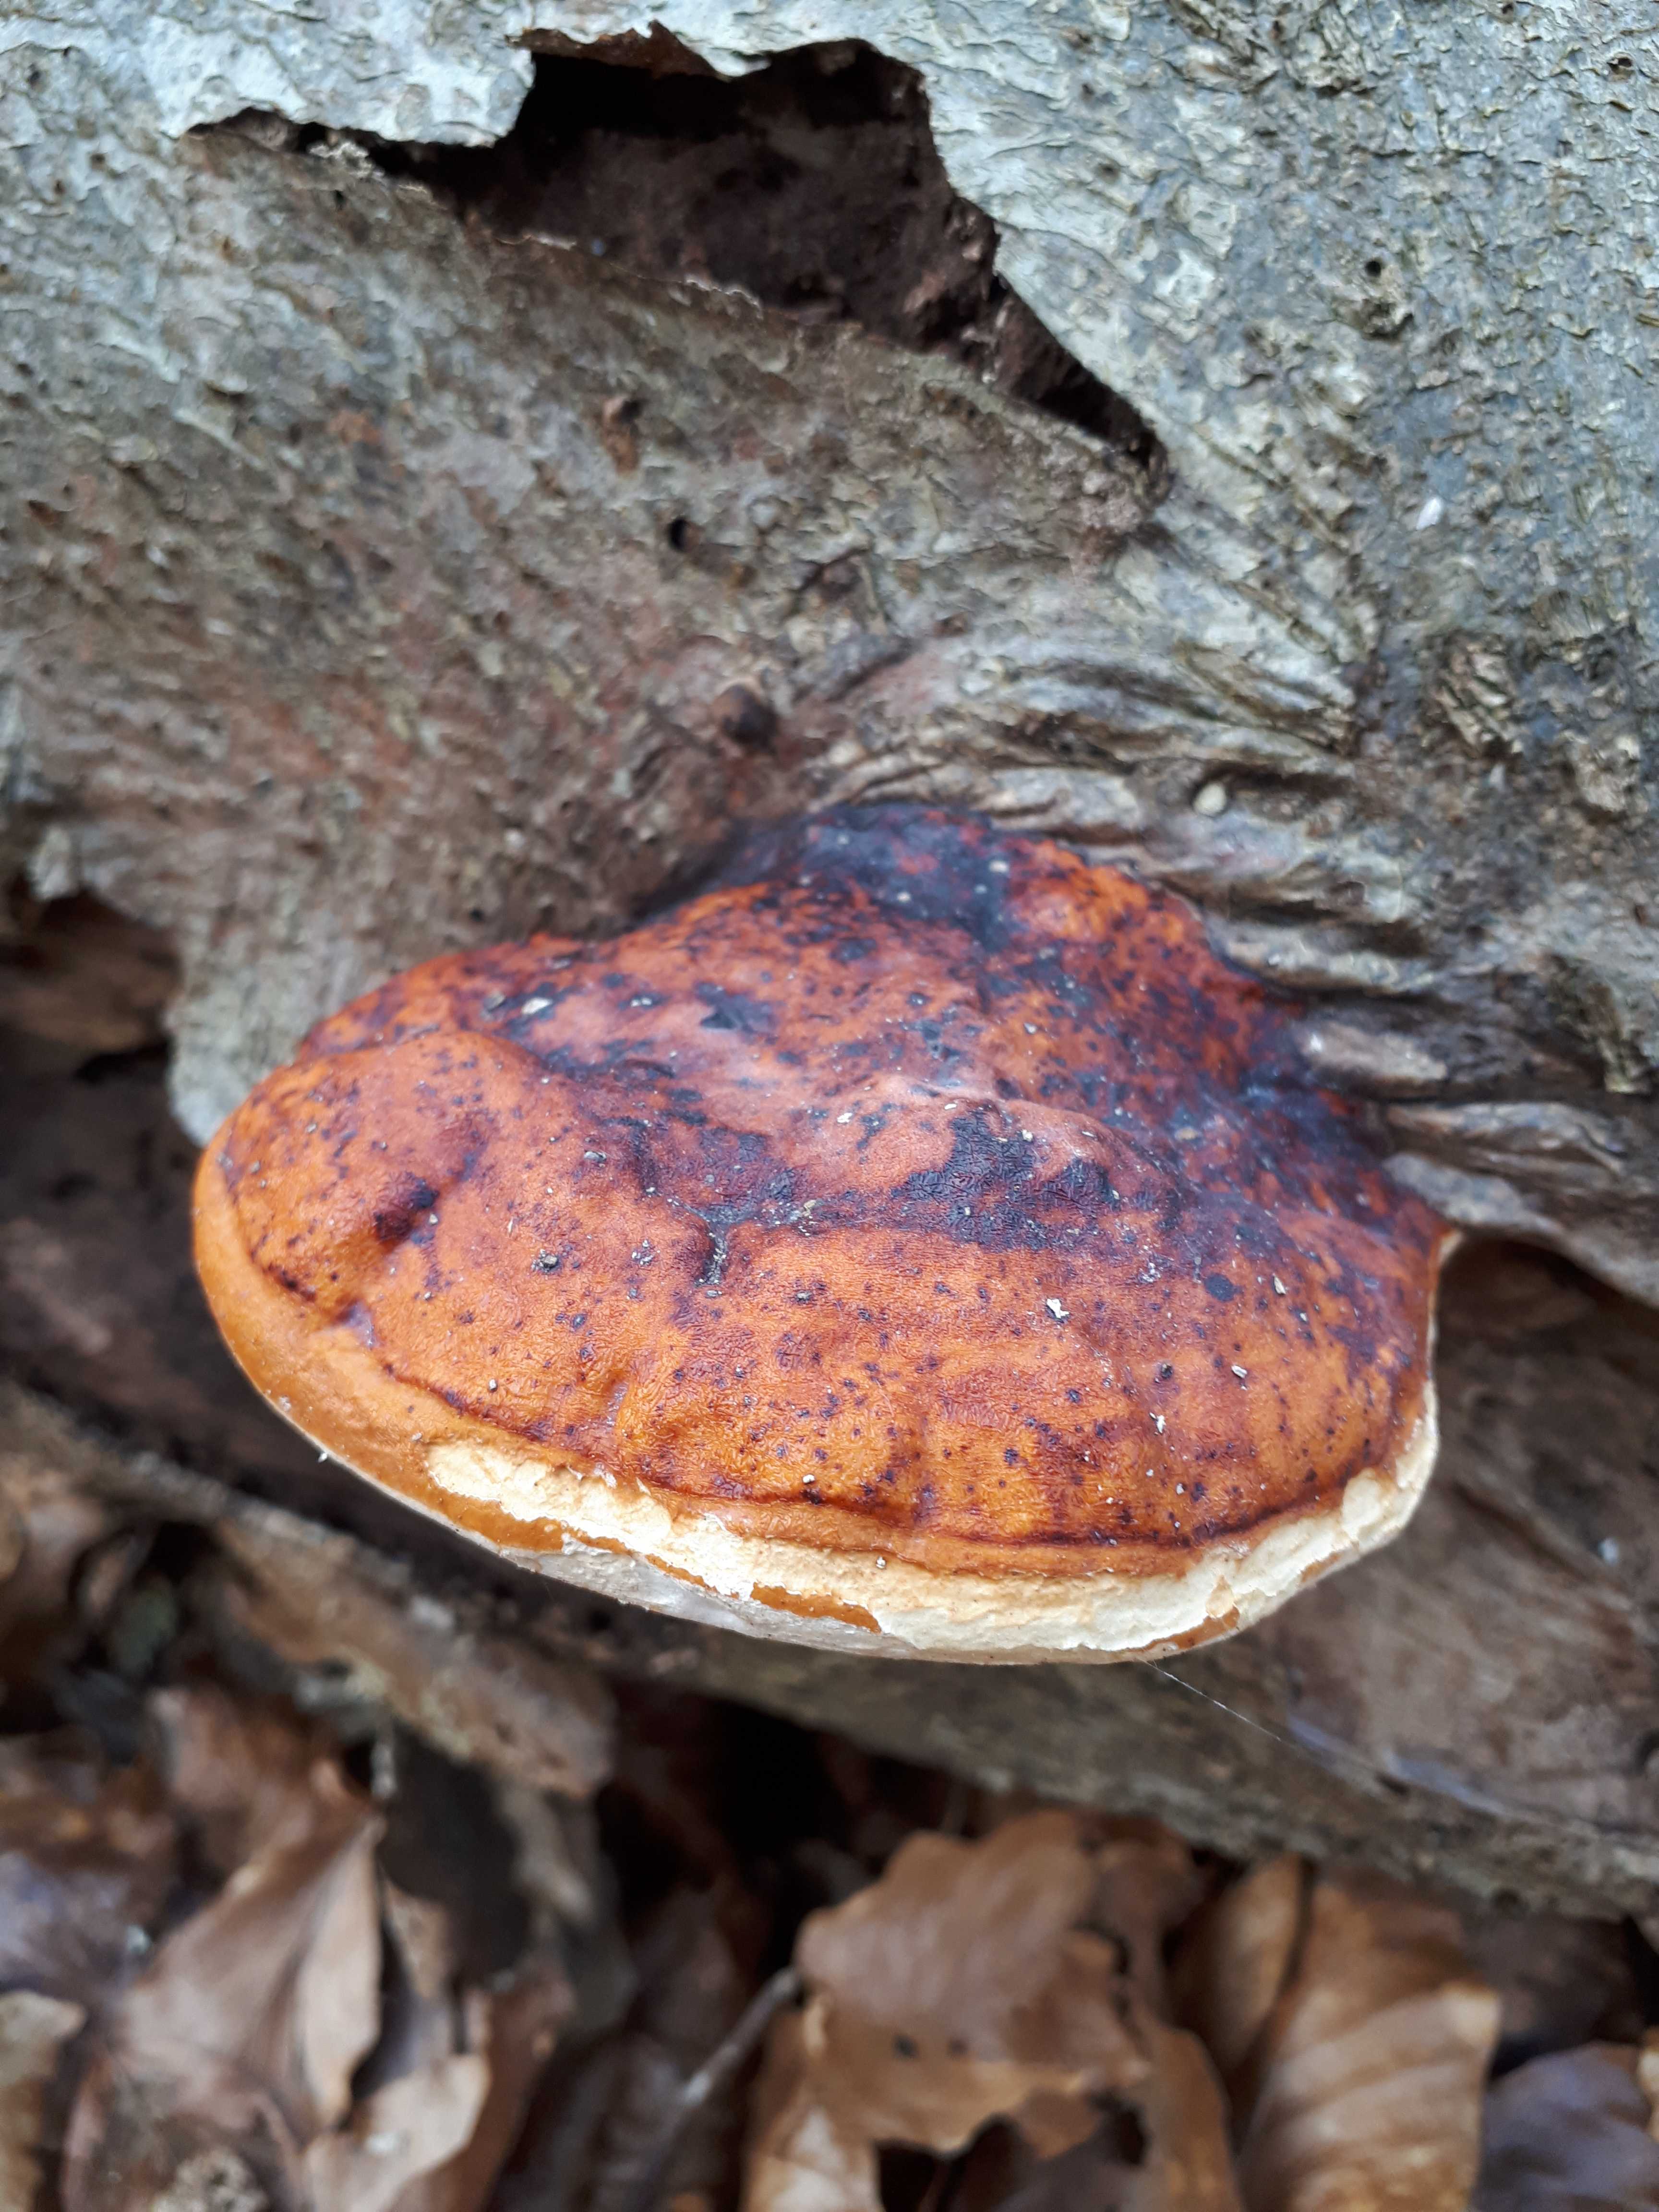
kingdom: Fungi
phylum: Basidiomycota
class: Agaricomycetes
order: Polyporales
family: Fomitopsidaceae
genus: Fomitopsis
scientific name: Fomitopsis pinicola
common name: randbæltet hovporesvamp
